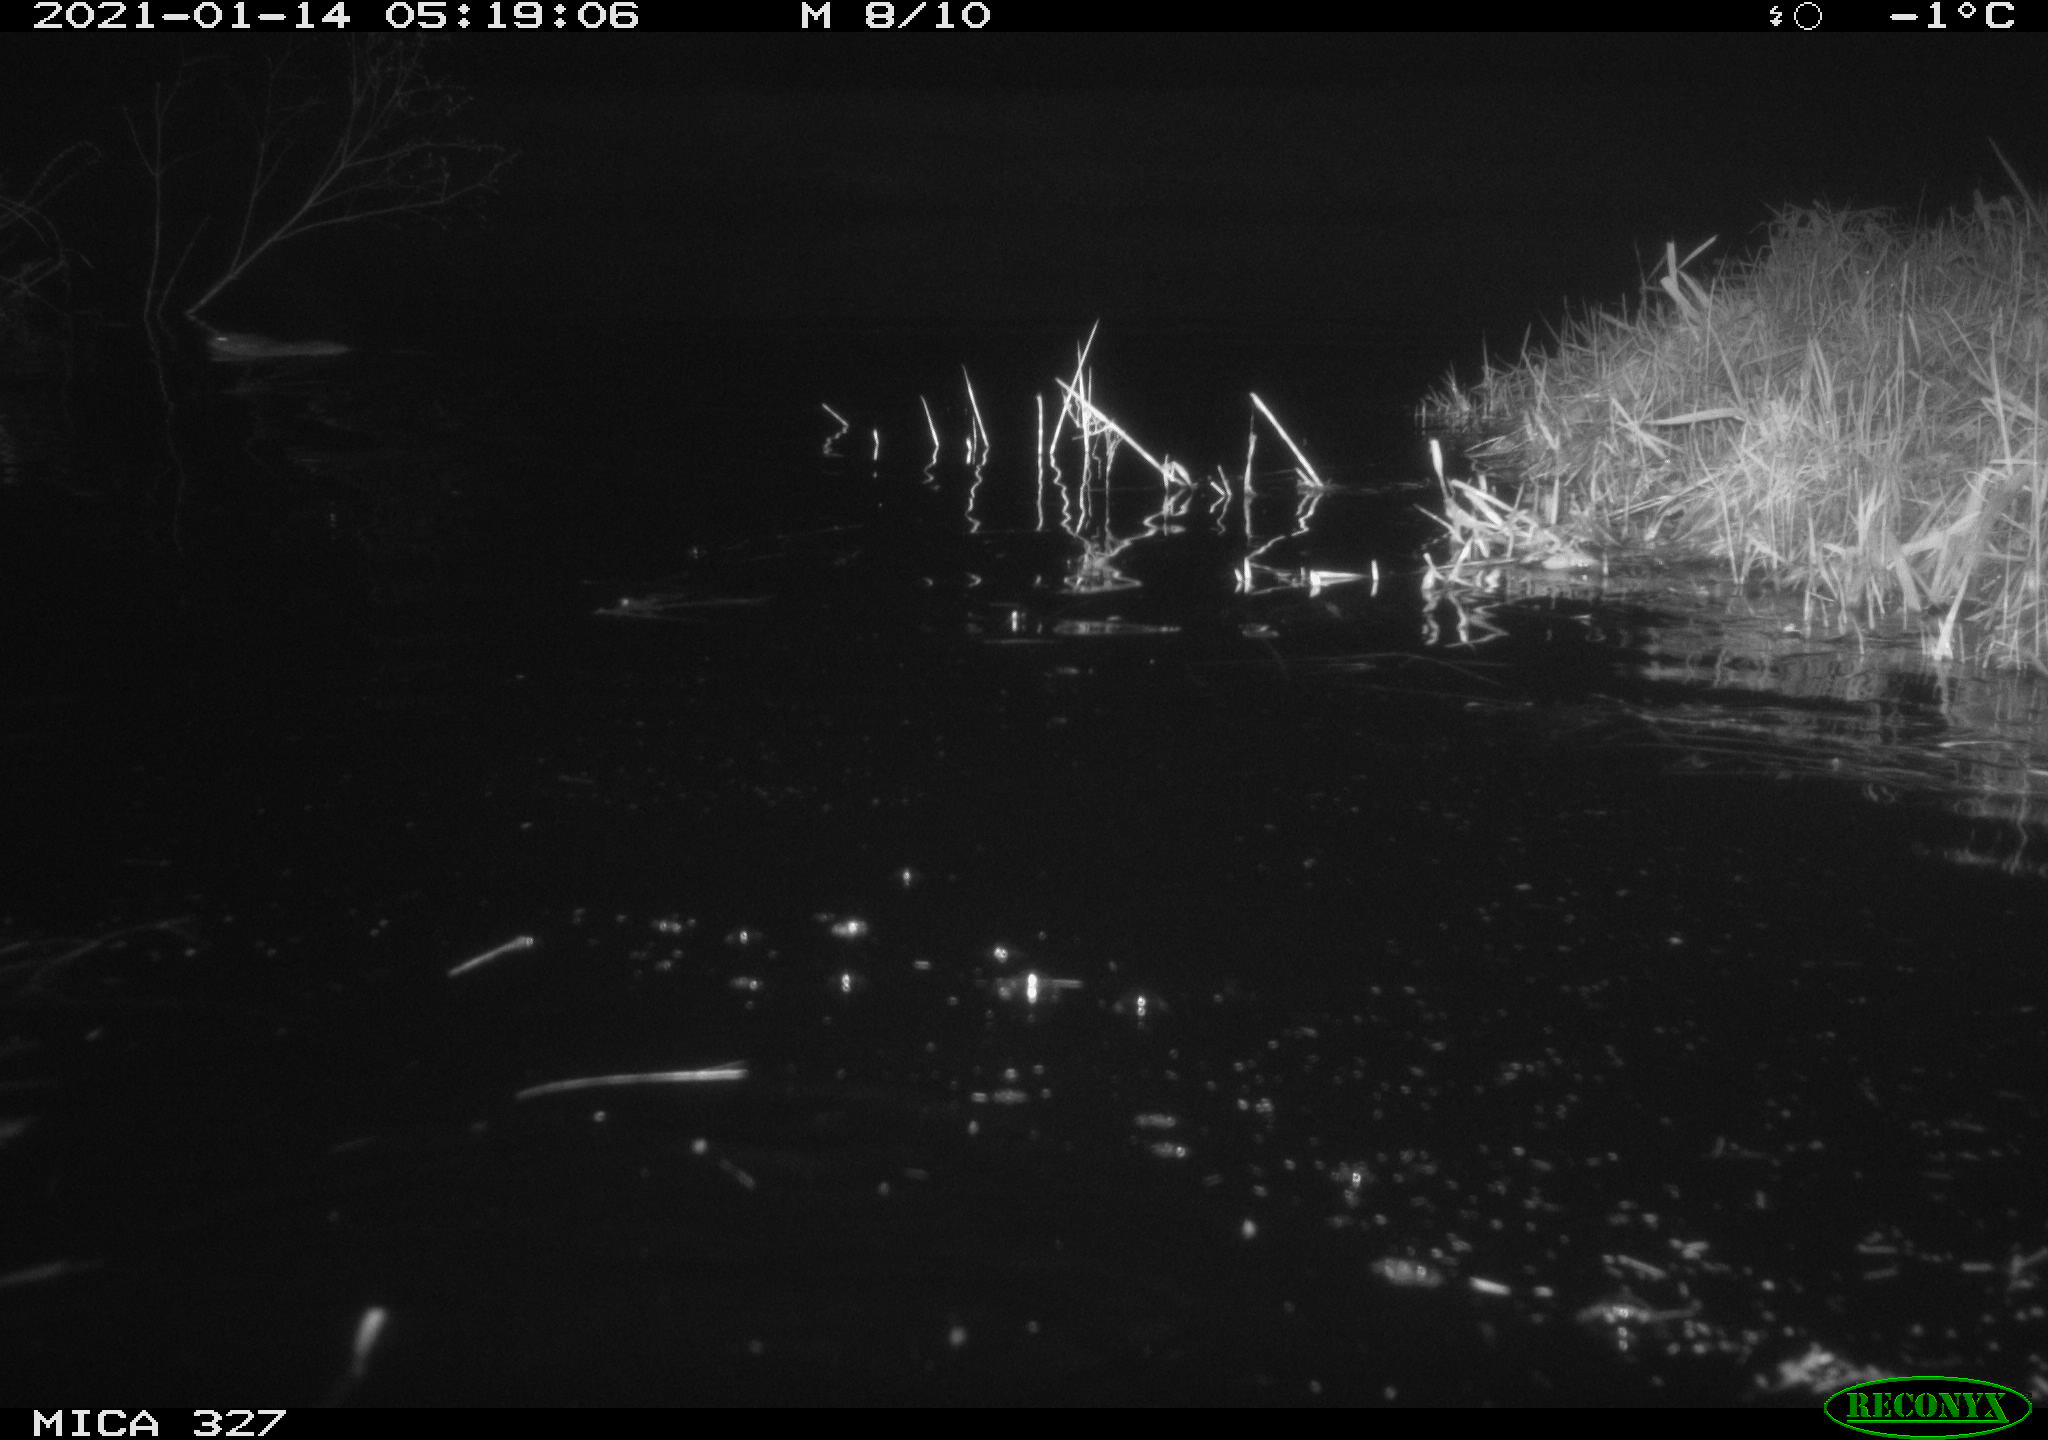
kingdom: Animalia
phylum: Chordata
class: Mammalia
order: Rodentia
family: Cricetidae
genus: Ondatra
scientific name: Ondatra zibethicus
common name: Muskrat
